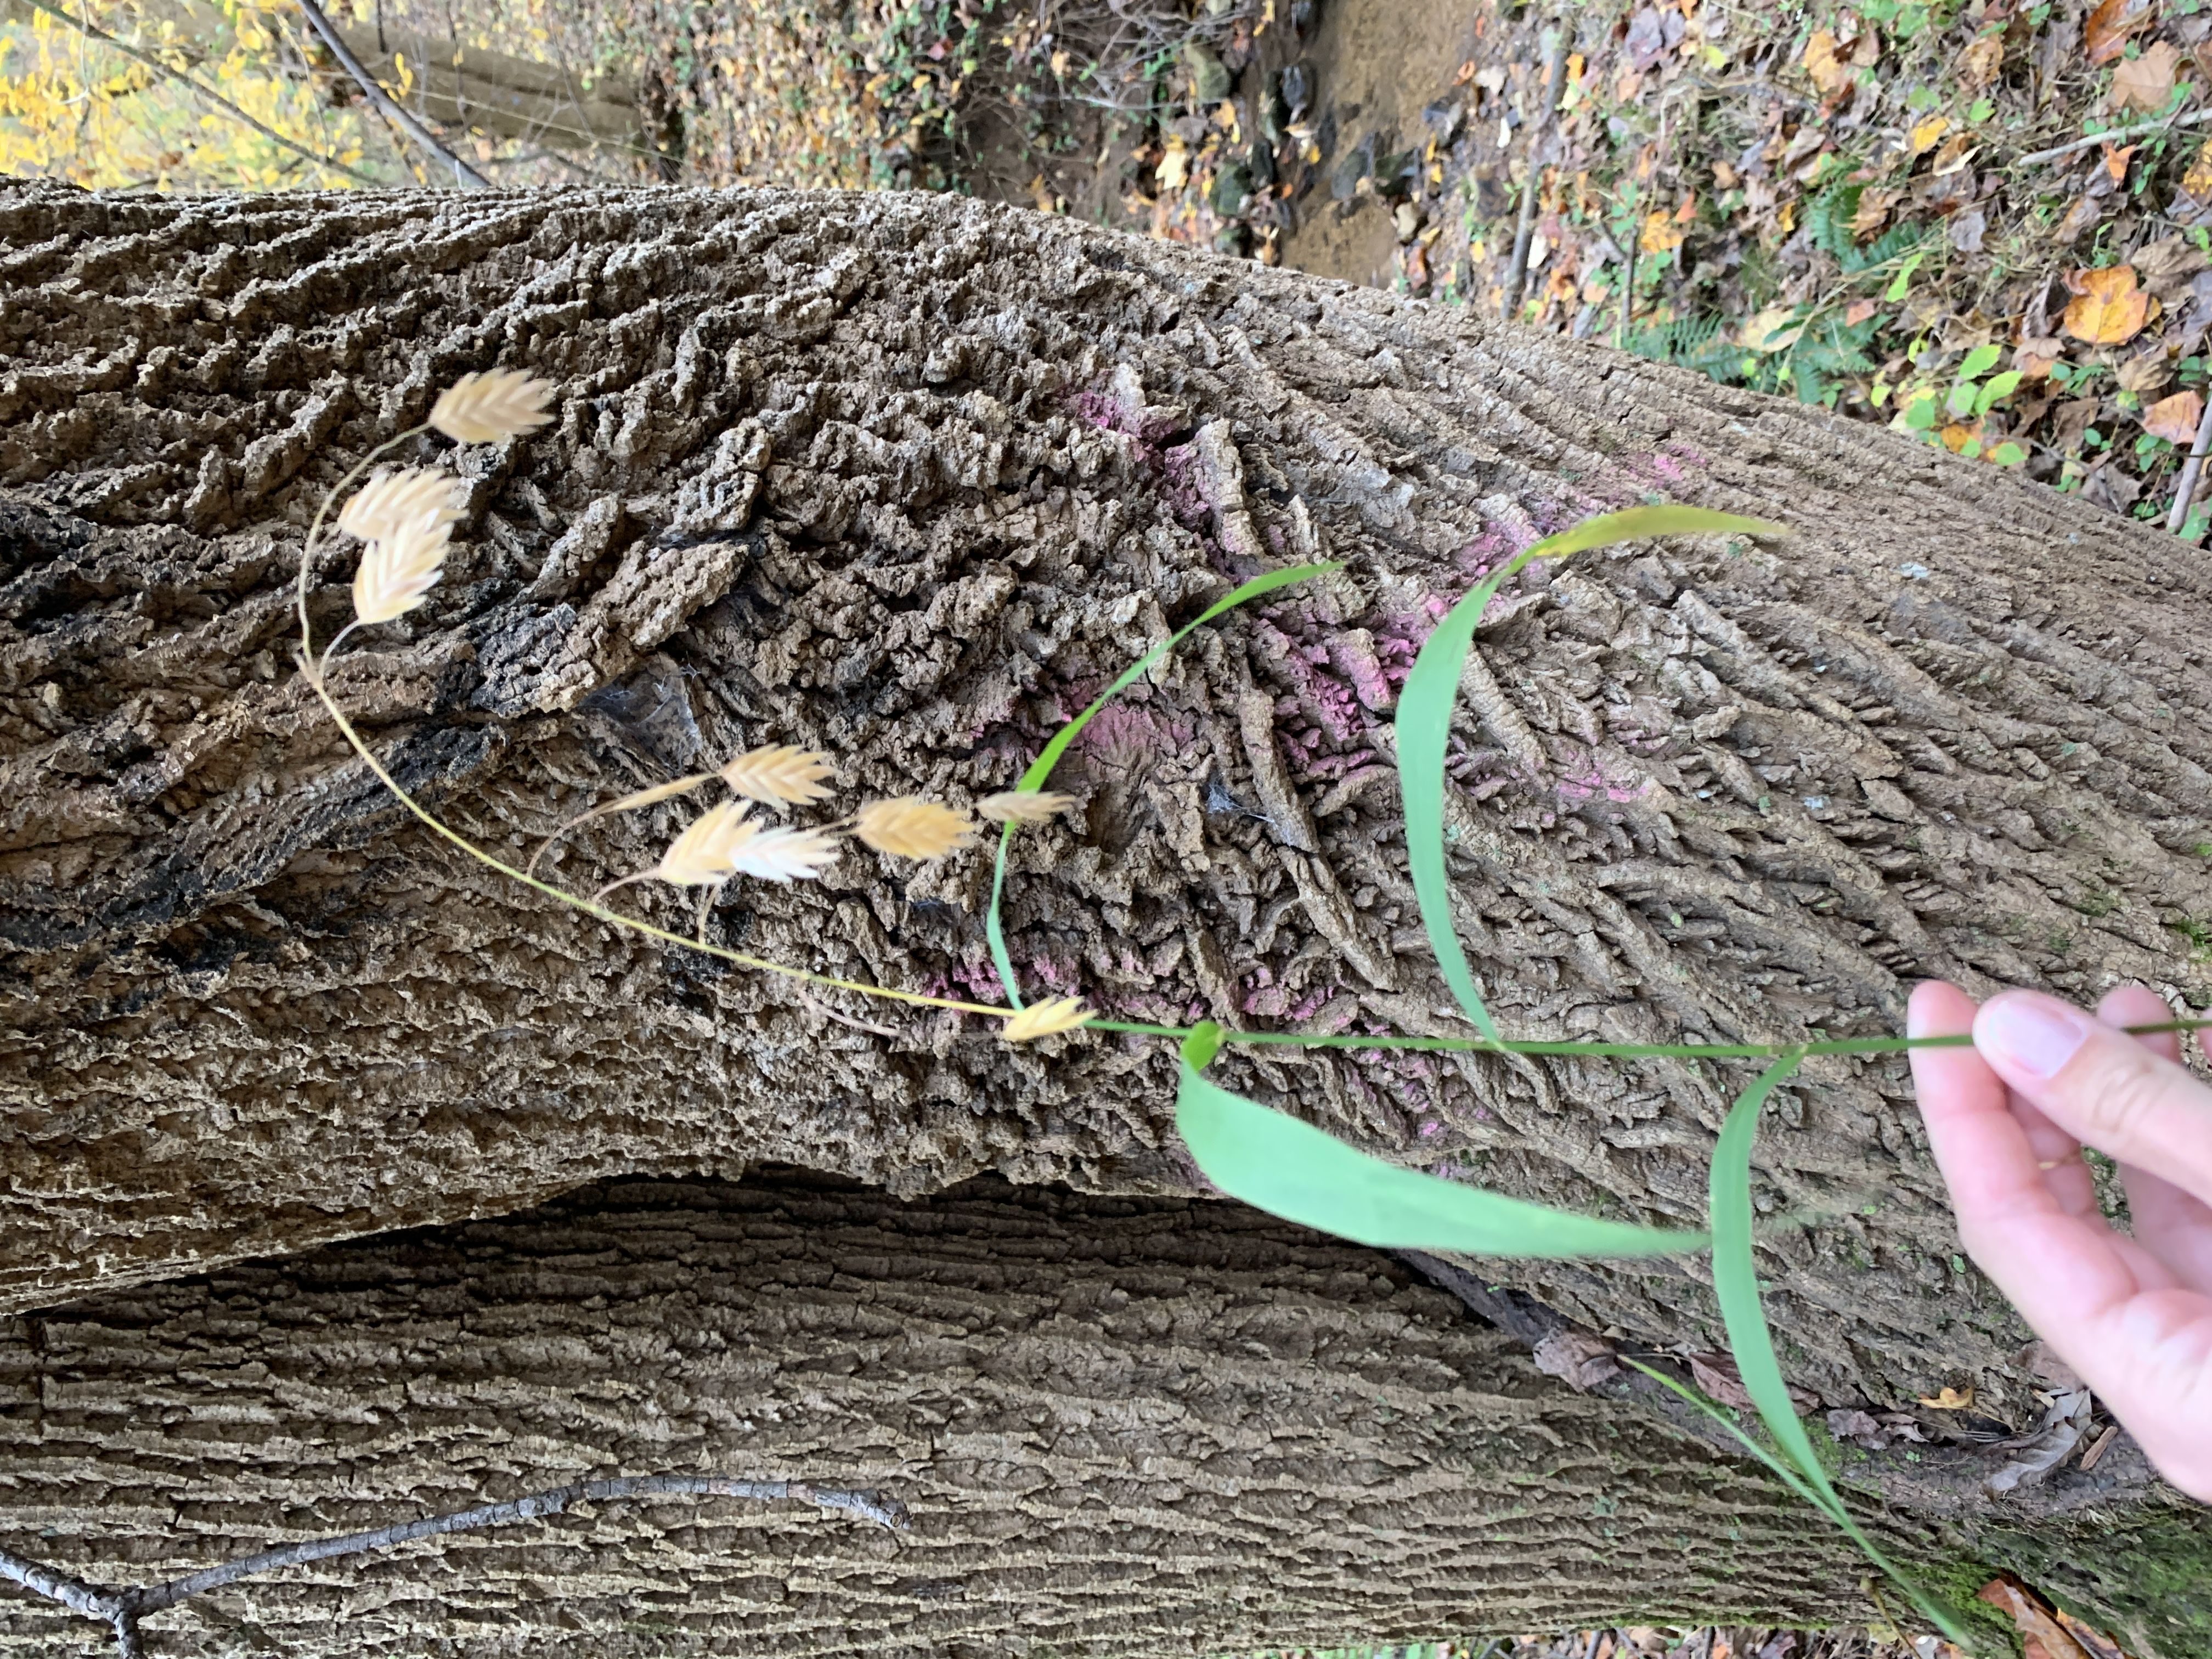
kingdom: Plantae
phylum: Tracheophyta
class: Liliopsida
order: Poales
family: Poaceae
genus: Chasmanthium
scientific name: Chasmanthium latifolium
